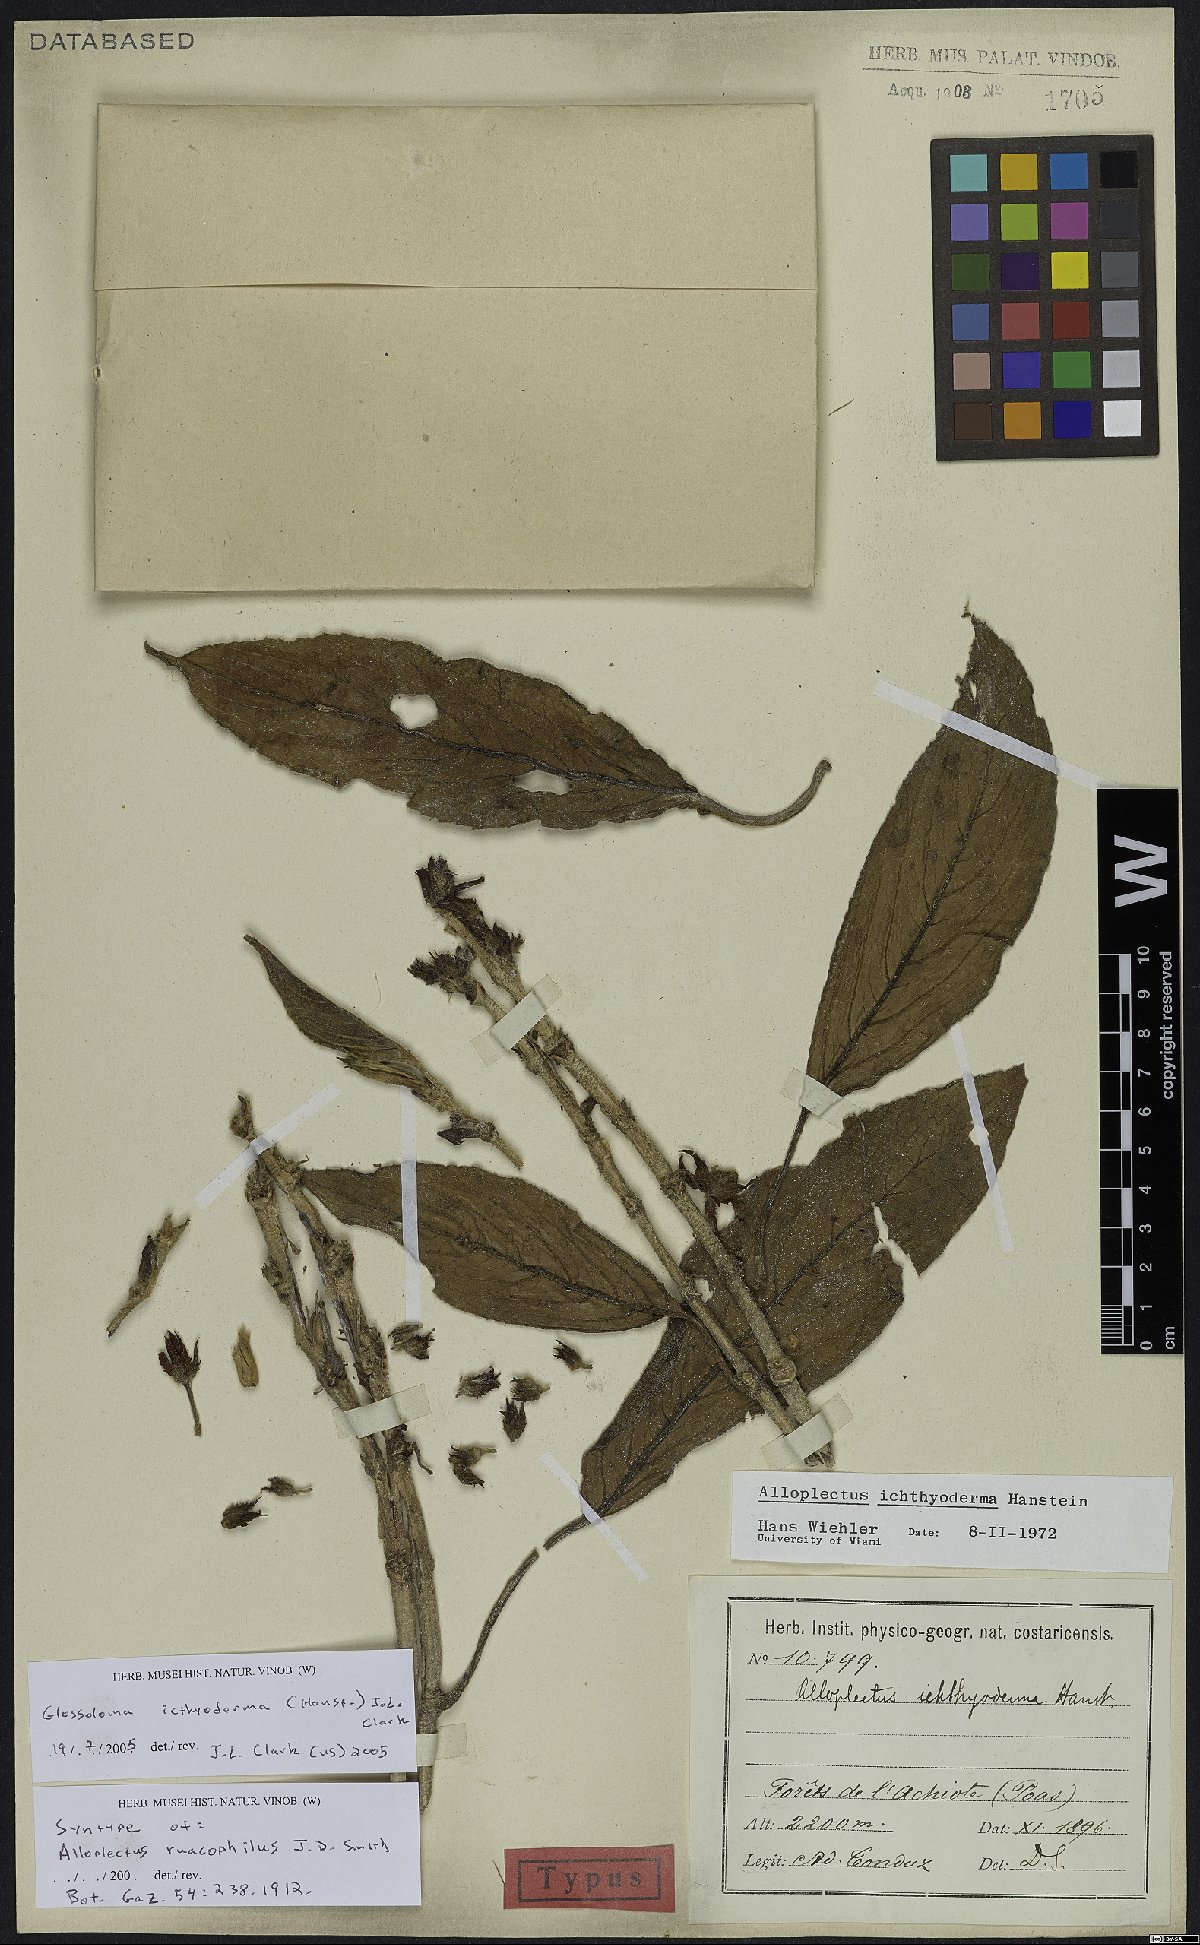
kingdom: Plantae
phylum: Tracheophyta
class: Magnoliopsida
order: Lamiales
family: Gesneriaceae
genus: Glossoloma
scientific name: Glossoloma ichthyoderma
